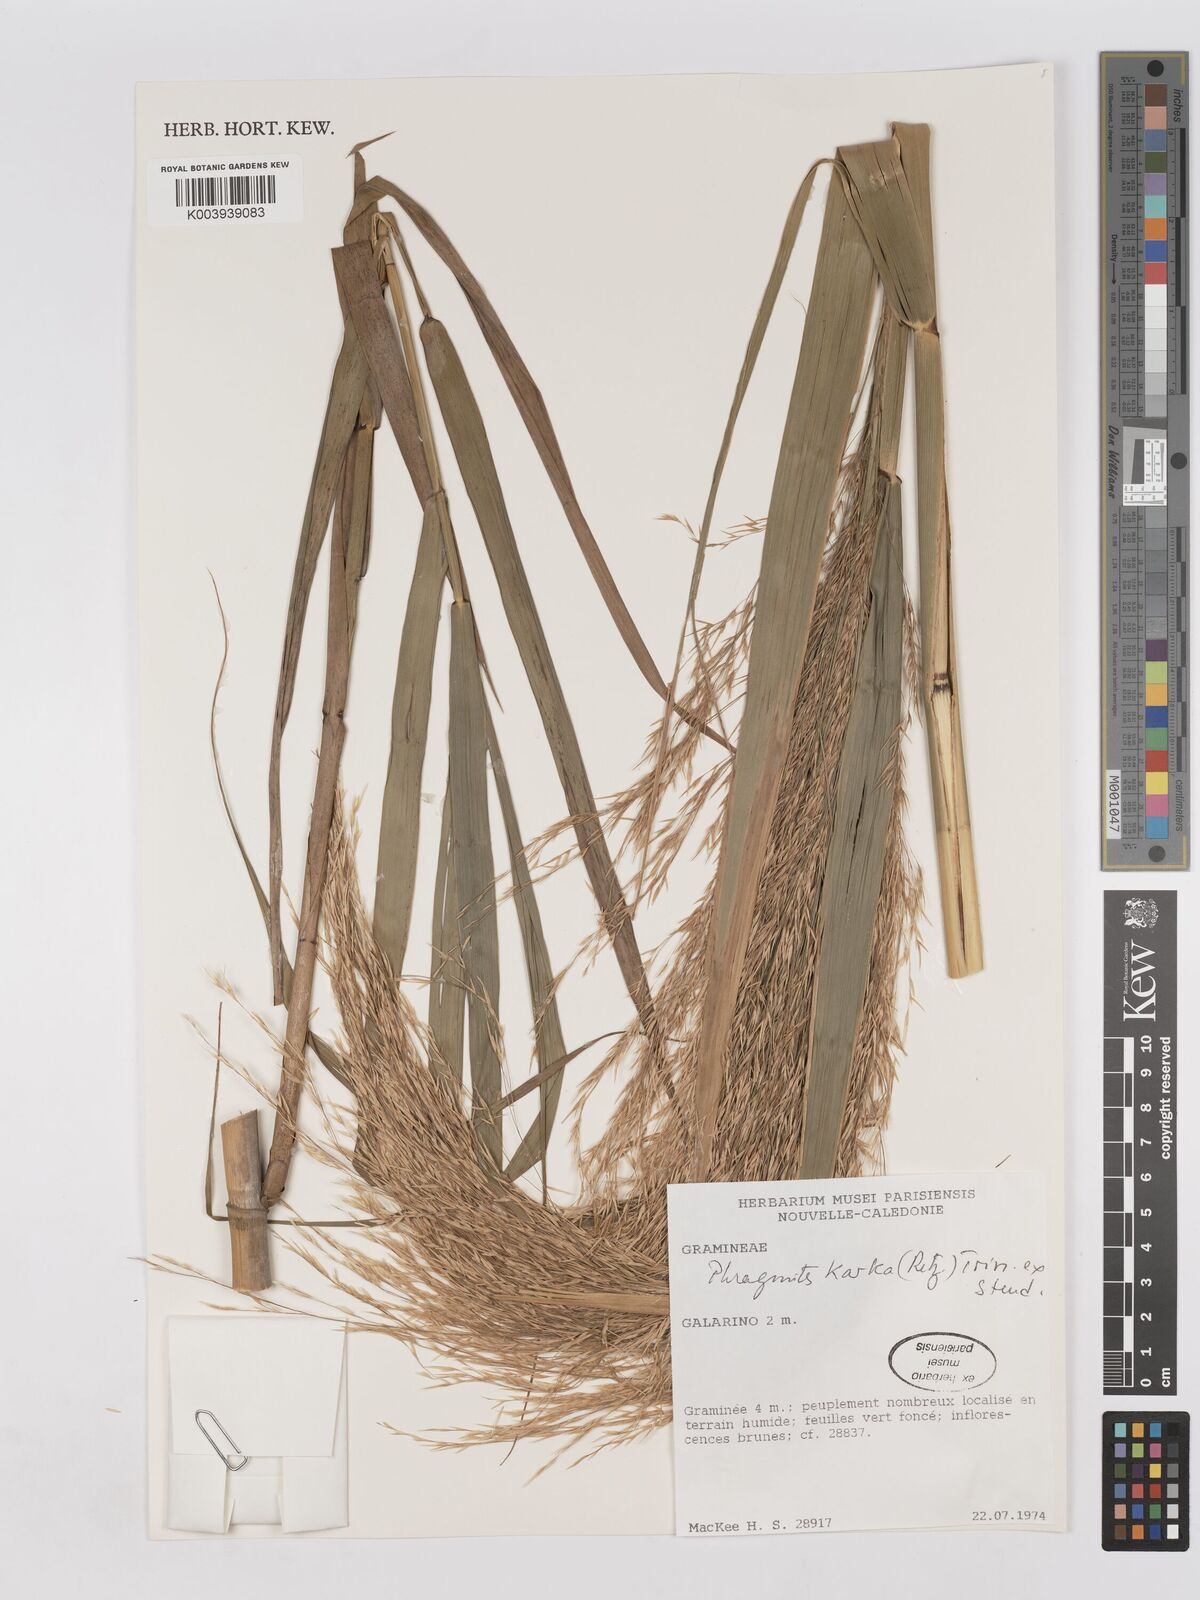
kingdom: Plantae
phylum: Tracheophyta
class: Liliopsida
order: Poales
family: Poaceae
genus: Phragmites
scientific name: Phragmites karka
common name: Tropical reed
